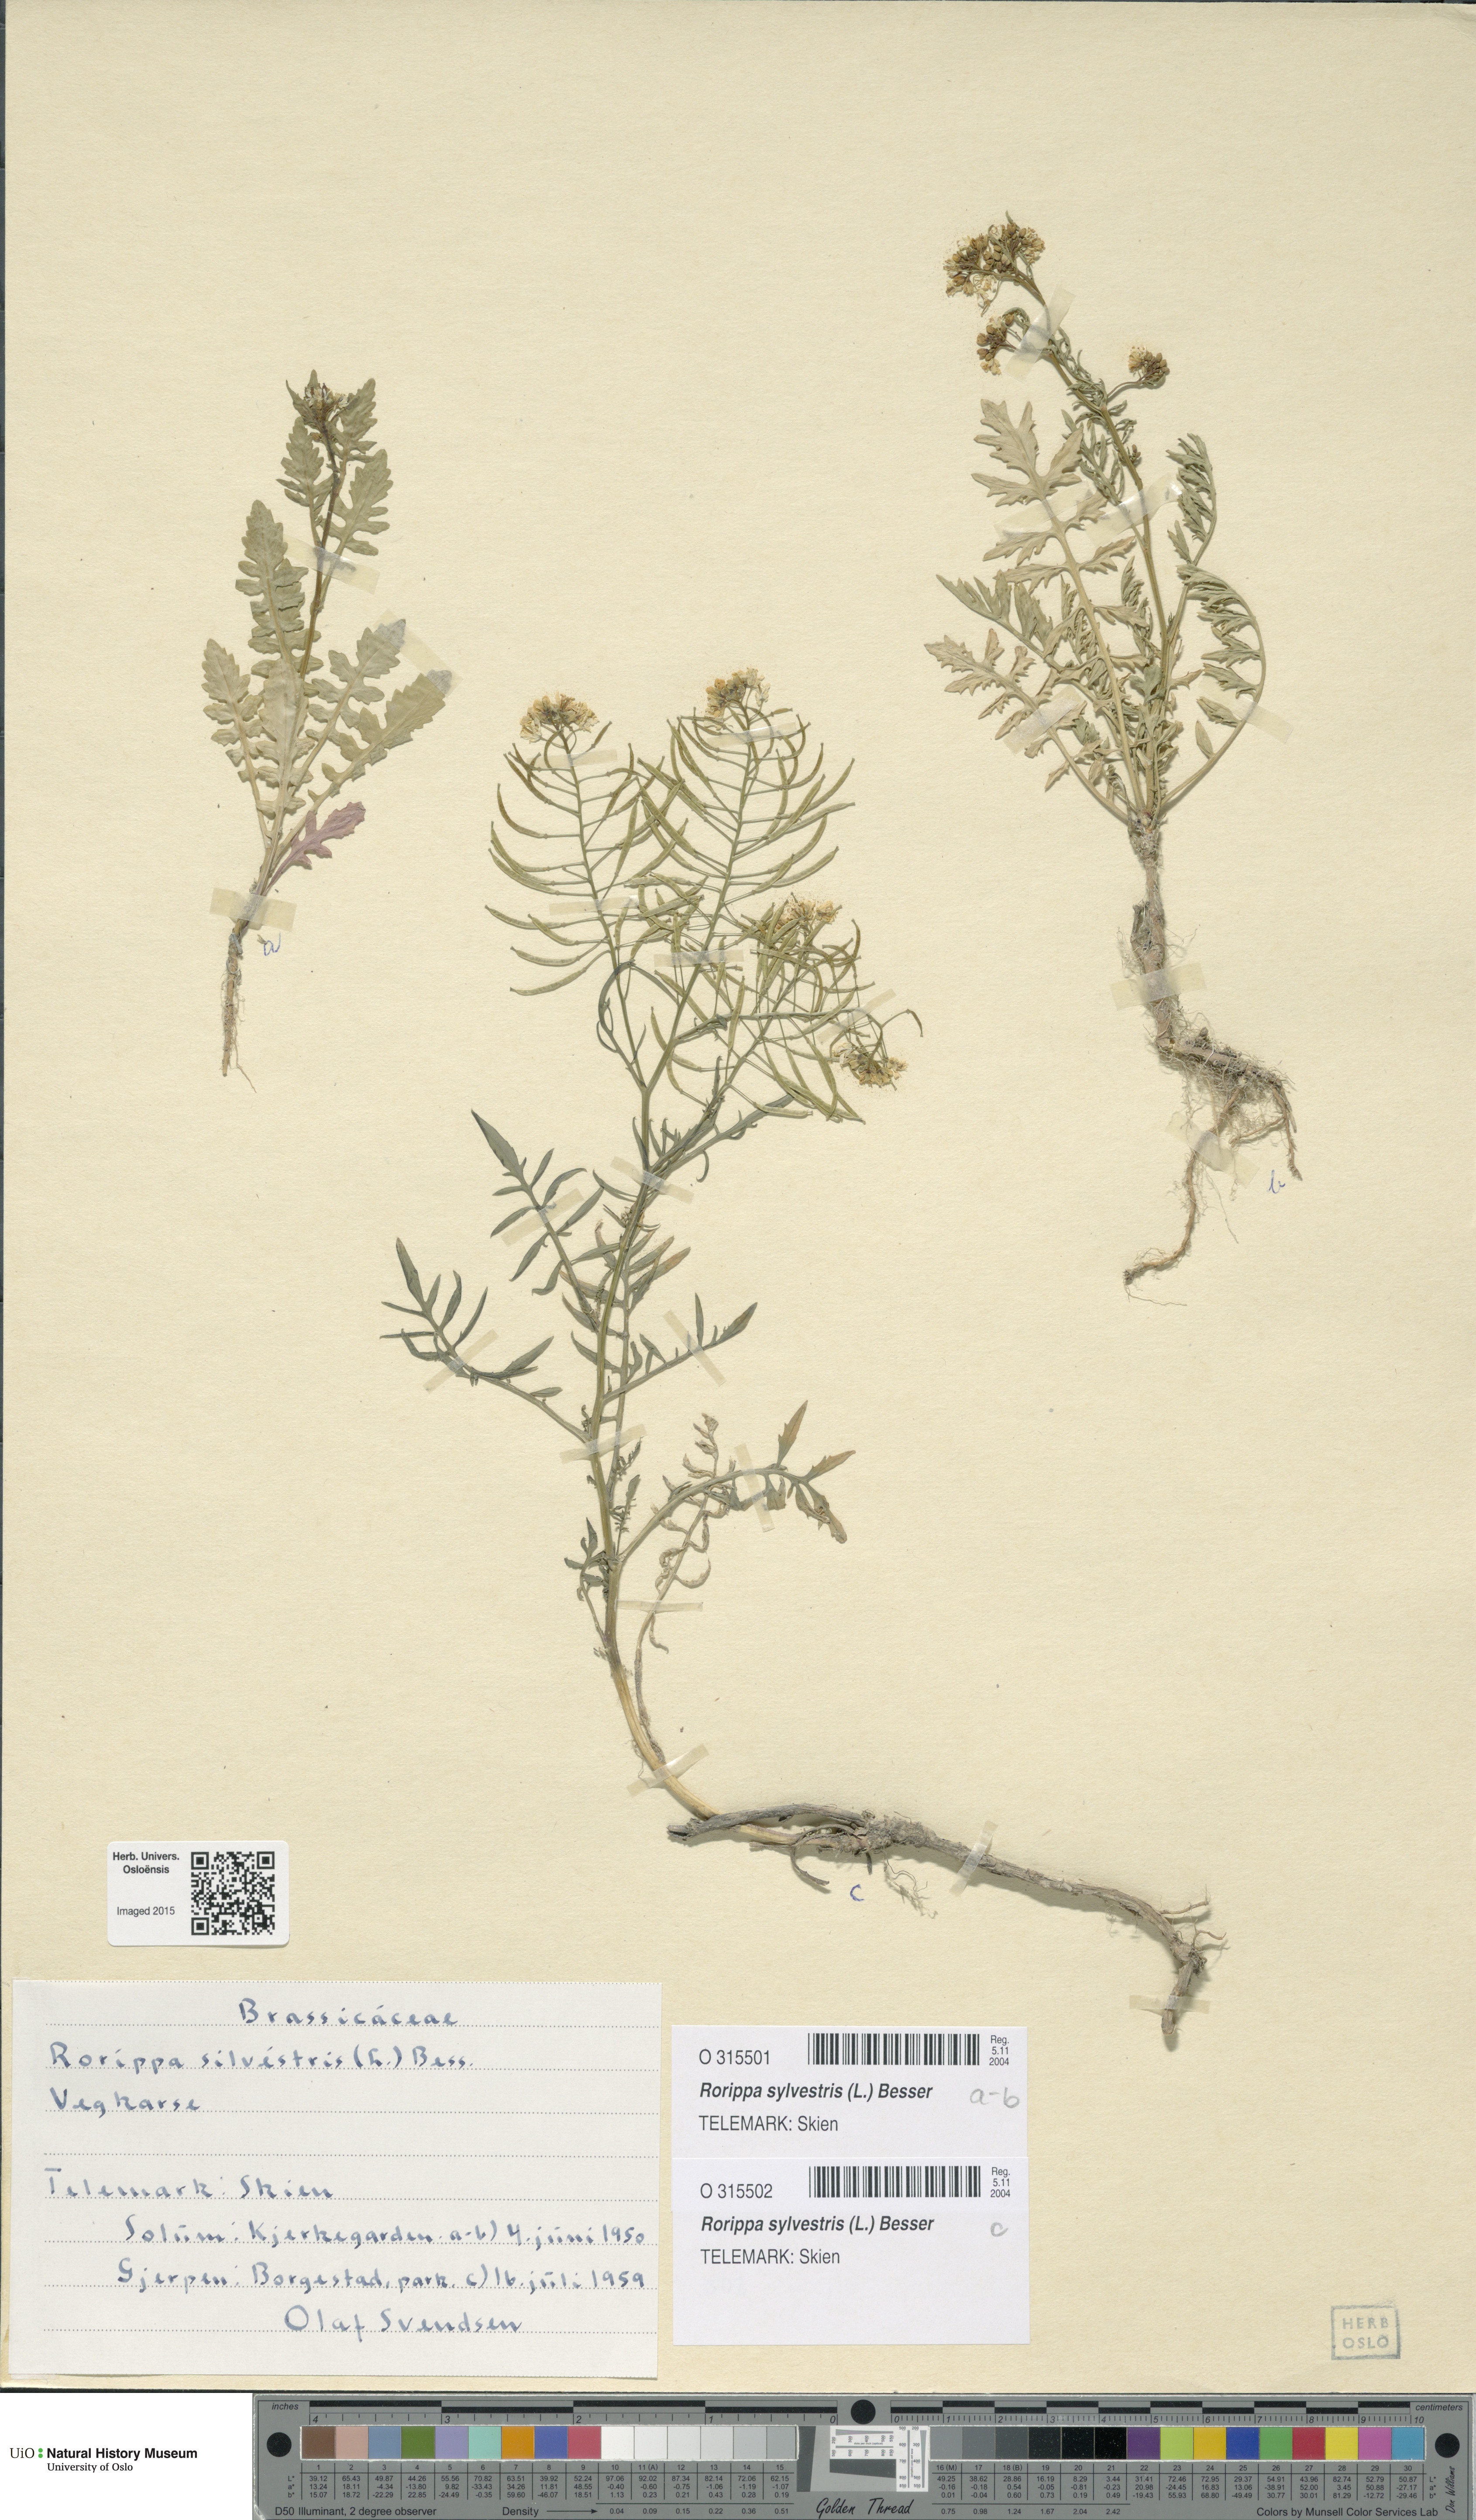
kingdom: Plantae
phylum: Tracheophyta
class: Magnoliopsida
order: Brassicales
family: Brassicaceae
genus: Rorippa
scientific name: Rorippa sylvestris
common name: Creeping yellowcress
